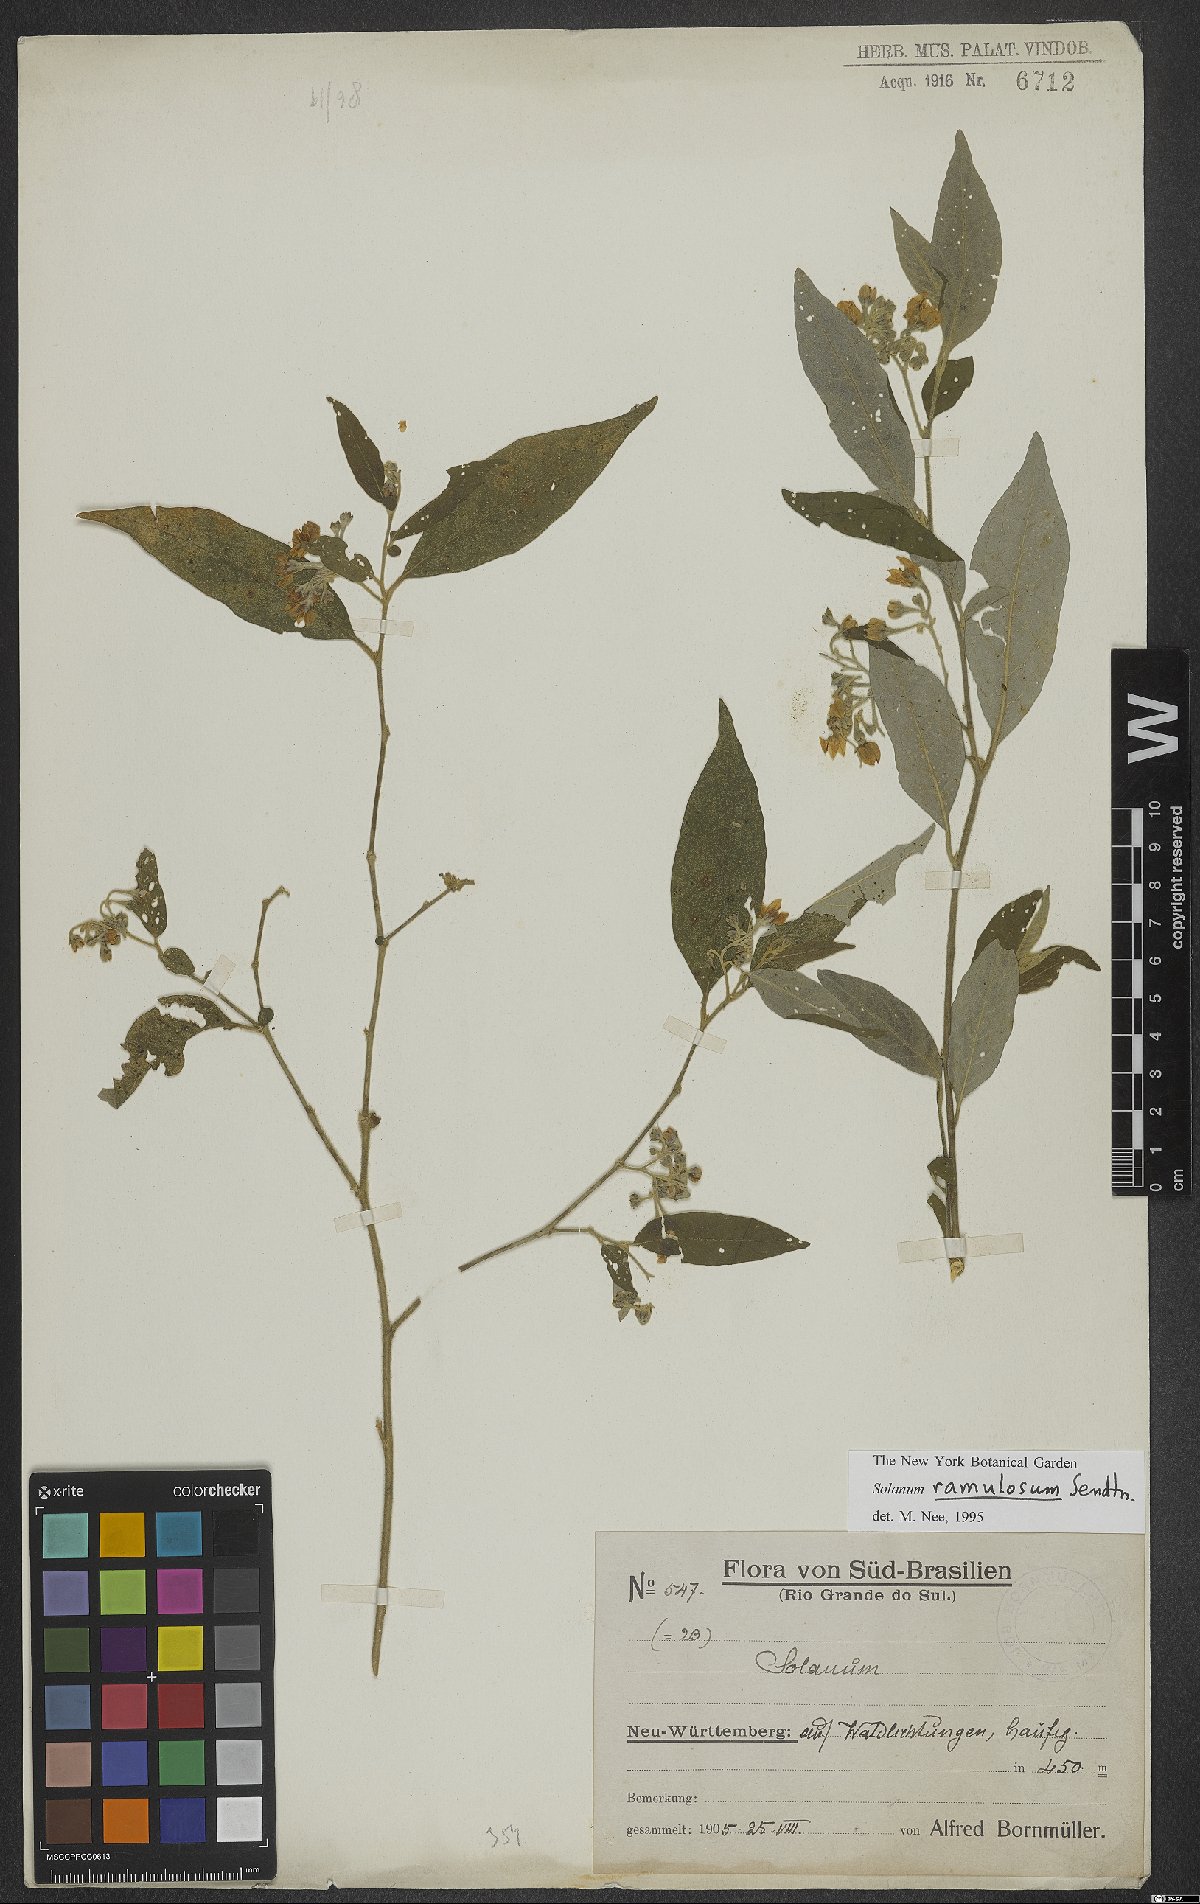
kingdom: Plantae
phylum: Tracheophyta
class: Magnoliopsida
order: Solanales
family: Solanaceae
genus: Solanum
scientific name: Solanum ramulosum
